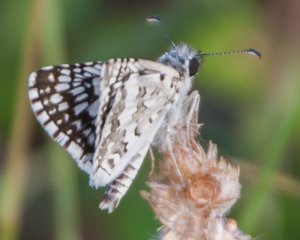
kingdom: Animalia
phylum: Arthropoda
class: Insecta
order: Lepidoptera
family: Hesperiidae
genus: Pyrgus
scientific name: Pyrgus communis
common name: White Checkered-Skipper
